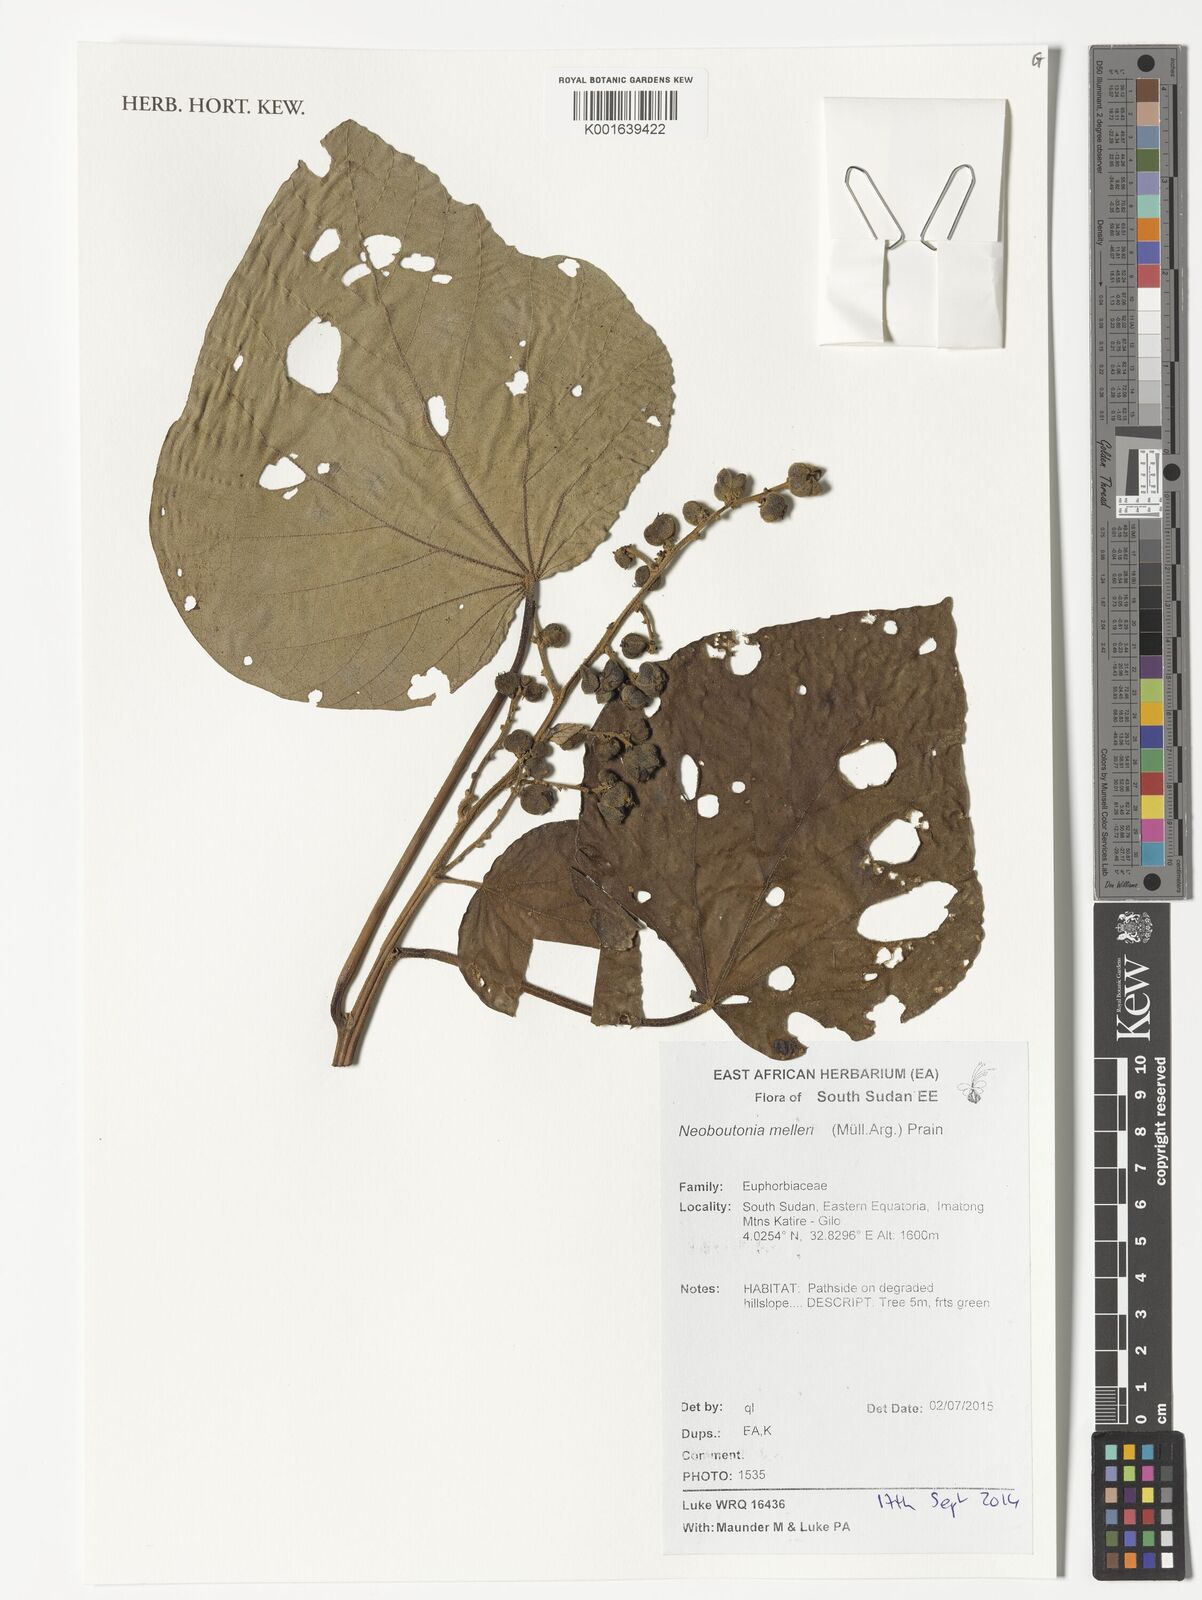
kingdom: Plantae
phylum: Tracheophyta
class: Magnoliopsida
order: Malpighiales
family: Euphorbiaceae
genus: Neoboutonia
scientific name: Neoboutonia melleri
